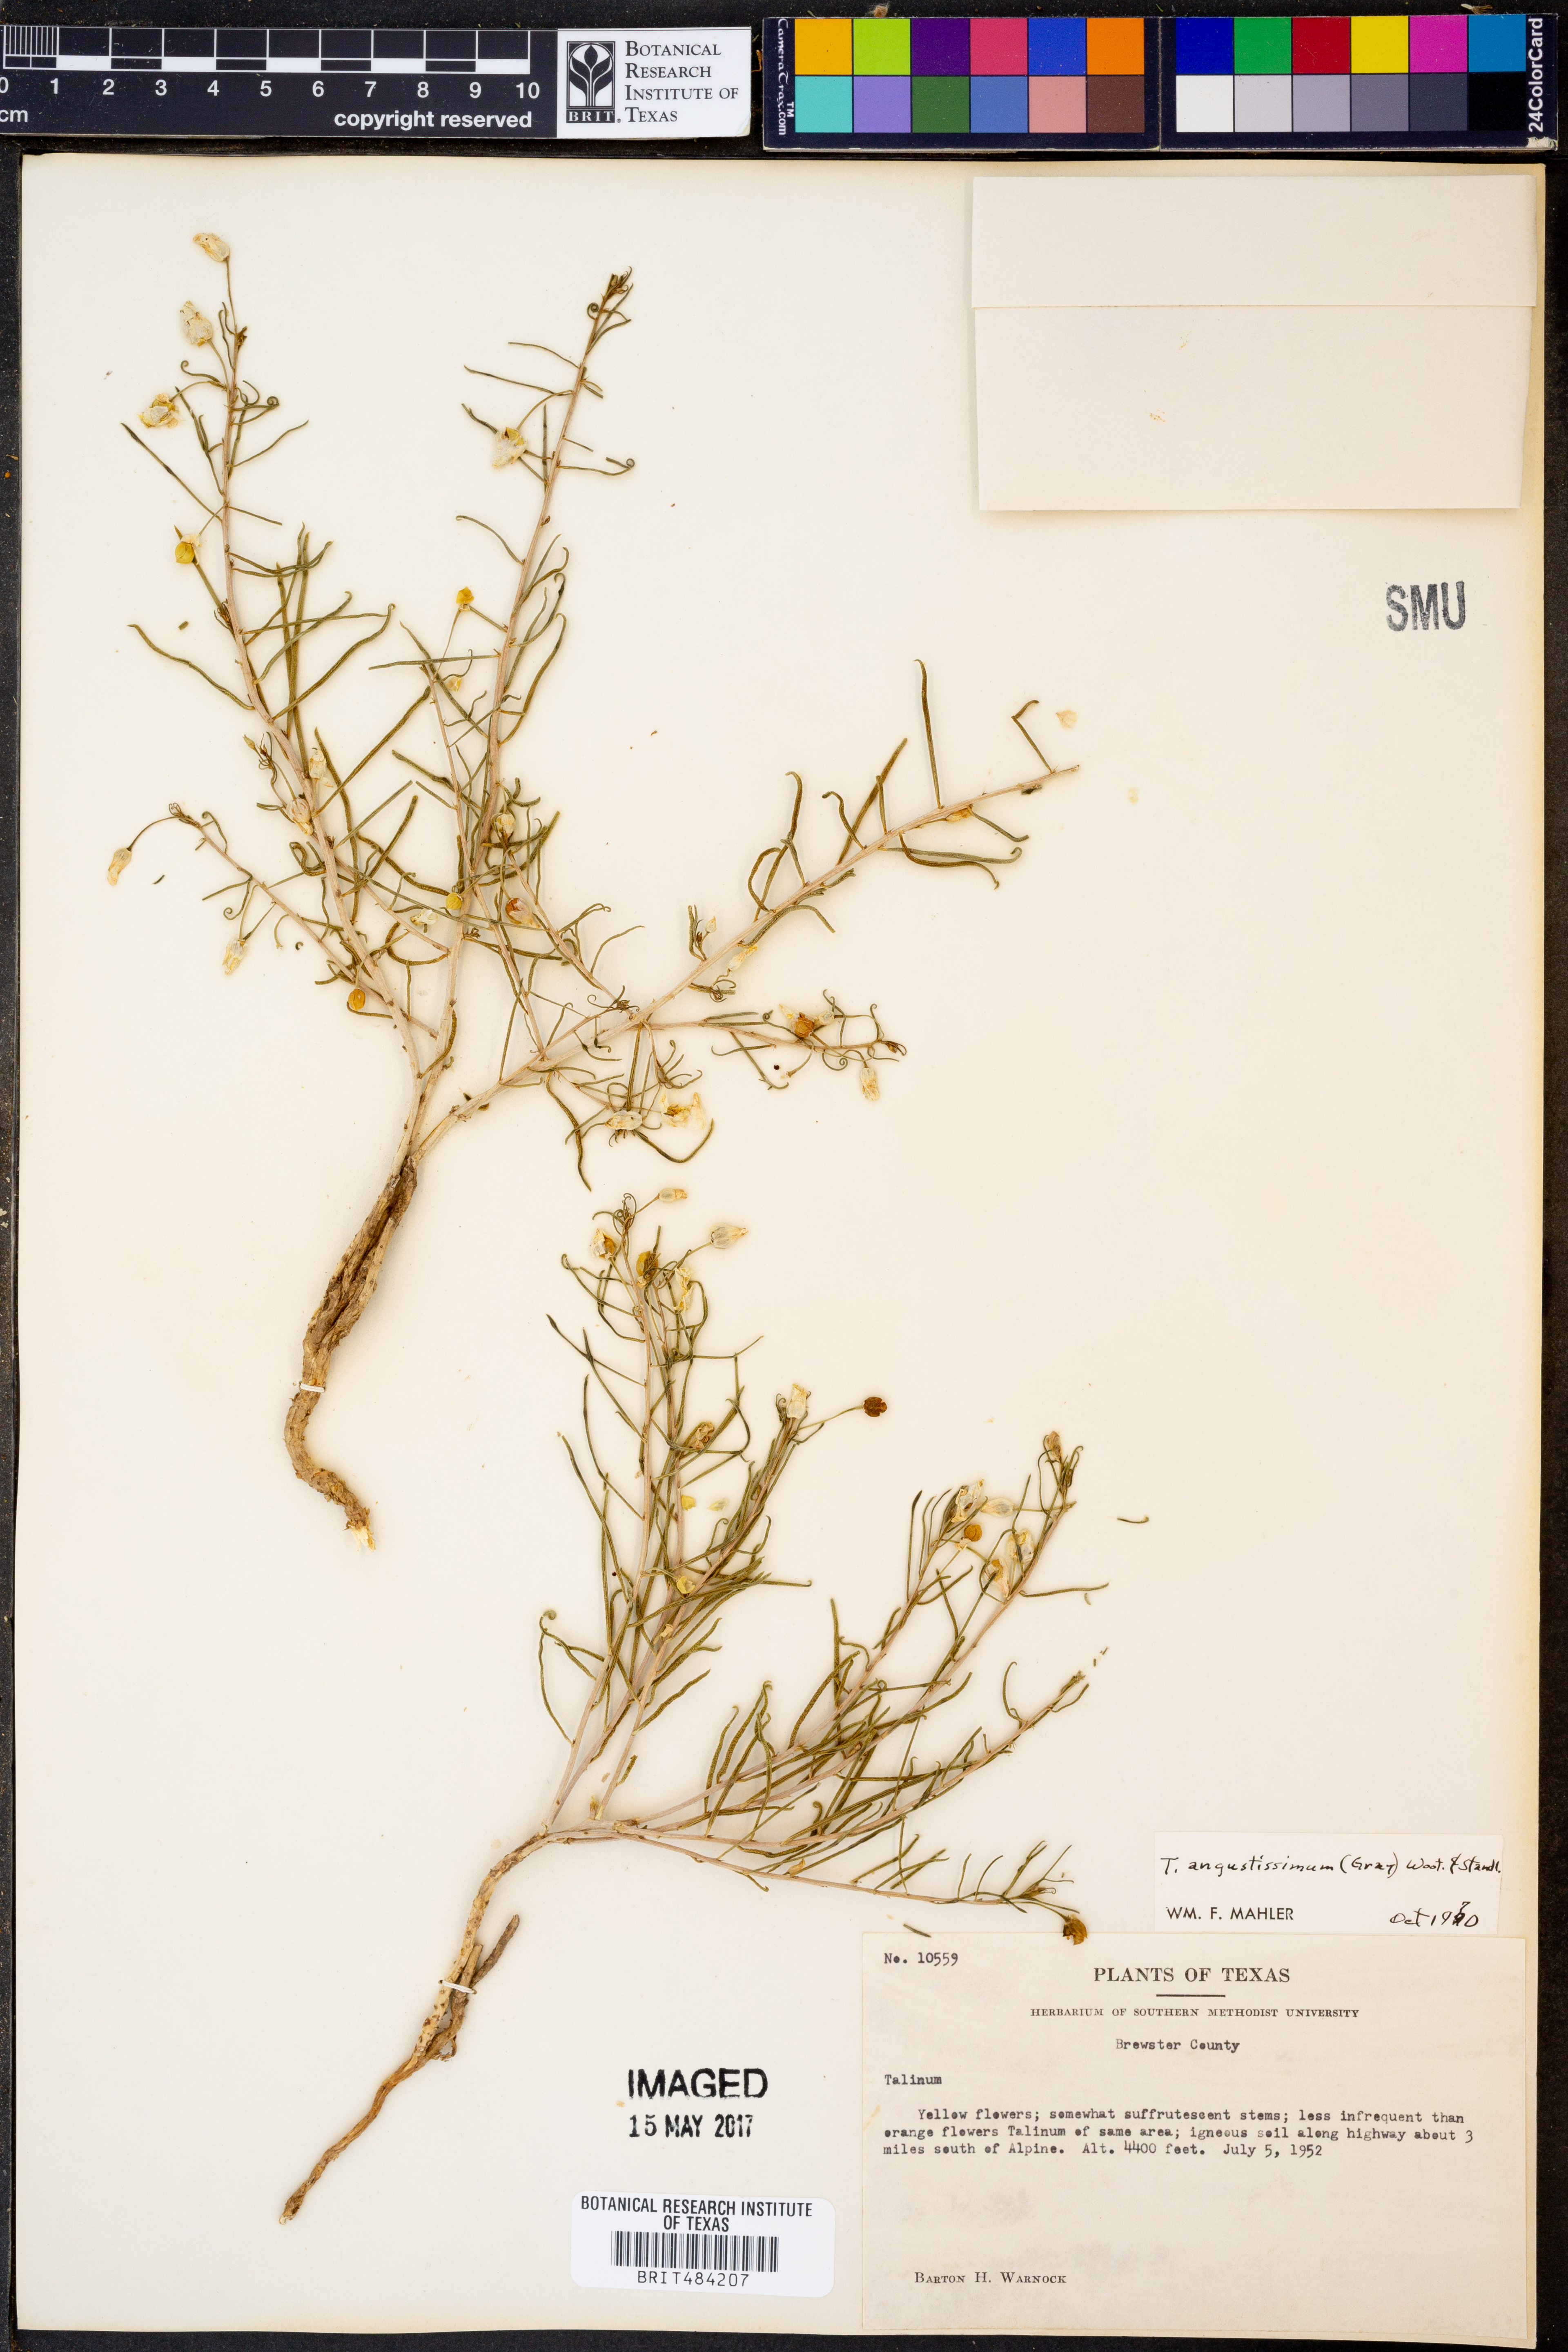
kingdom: Plantae
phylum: Tracheophyta
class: Magnoliopsida
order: Caryophyllales
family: Montiaceae
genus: Phemeranthus
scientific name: Phemeranthus aurantiacus
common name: Orange fameflower
